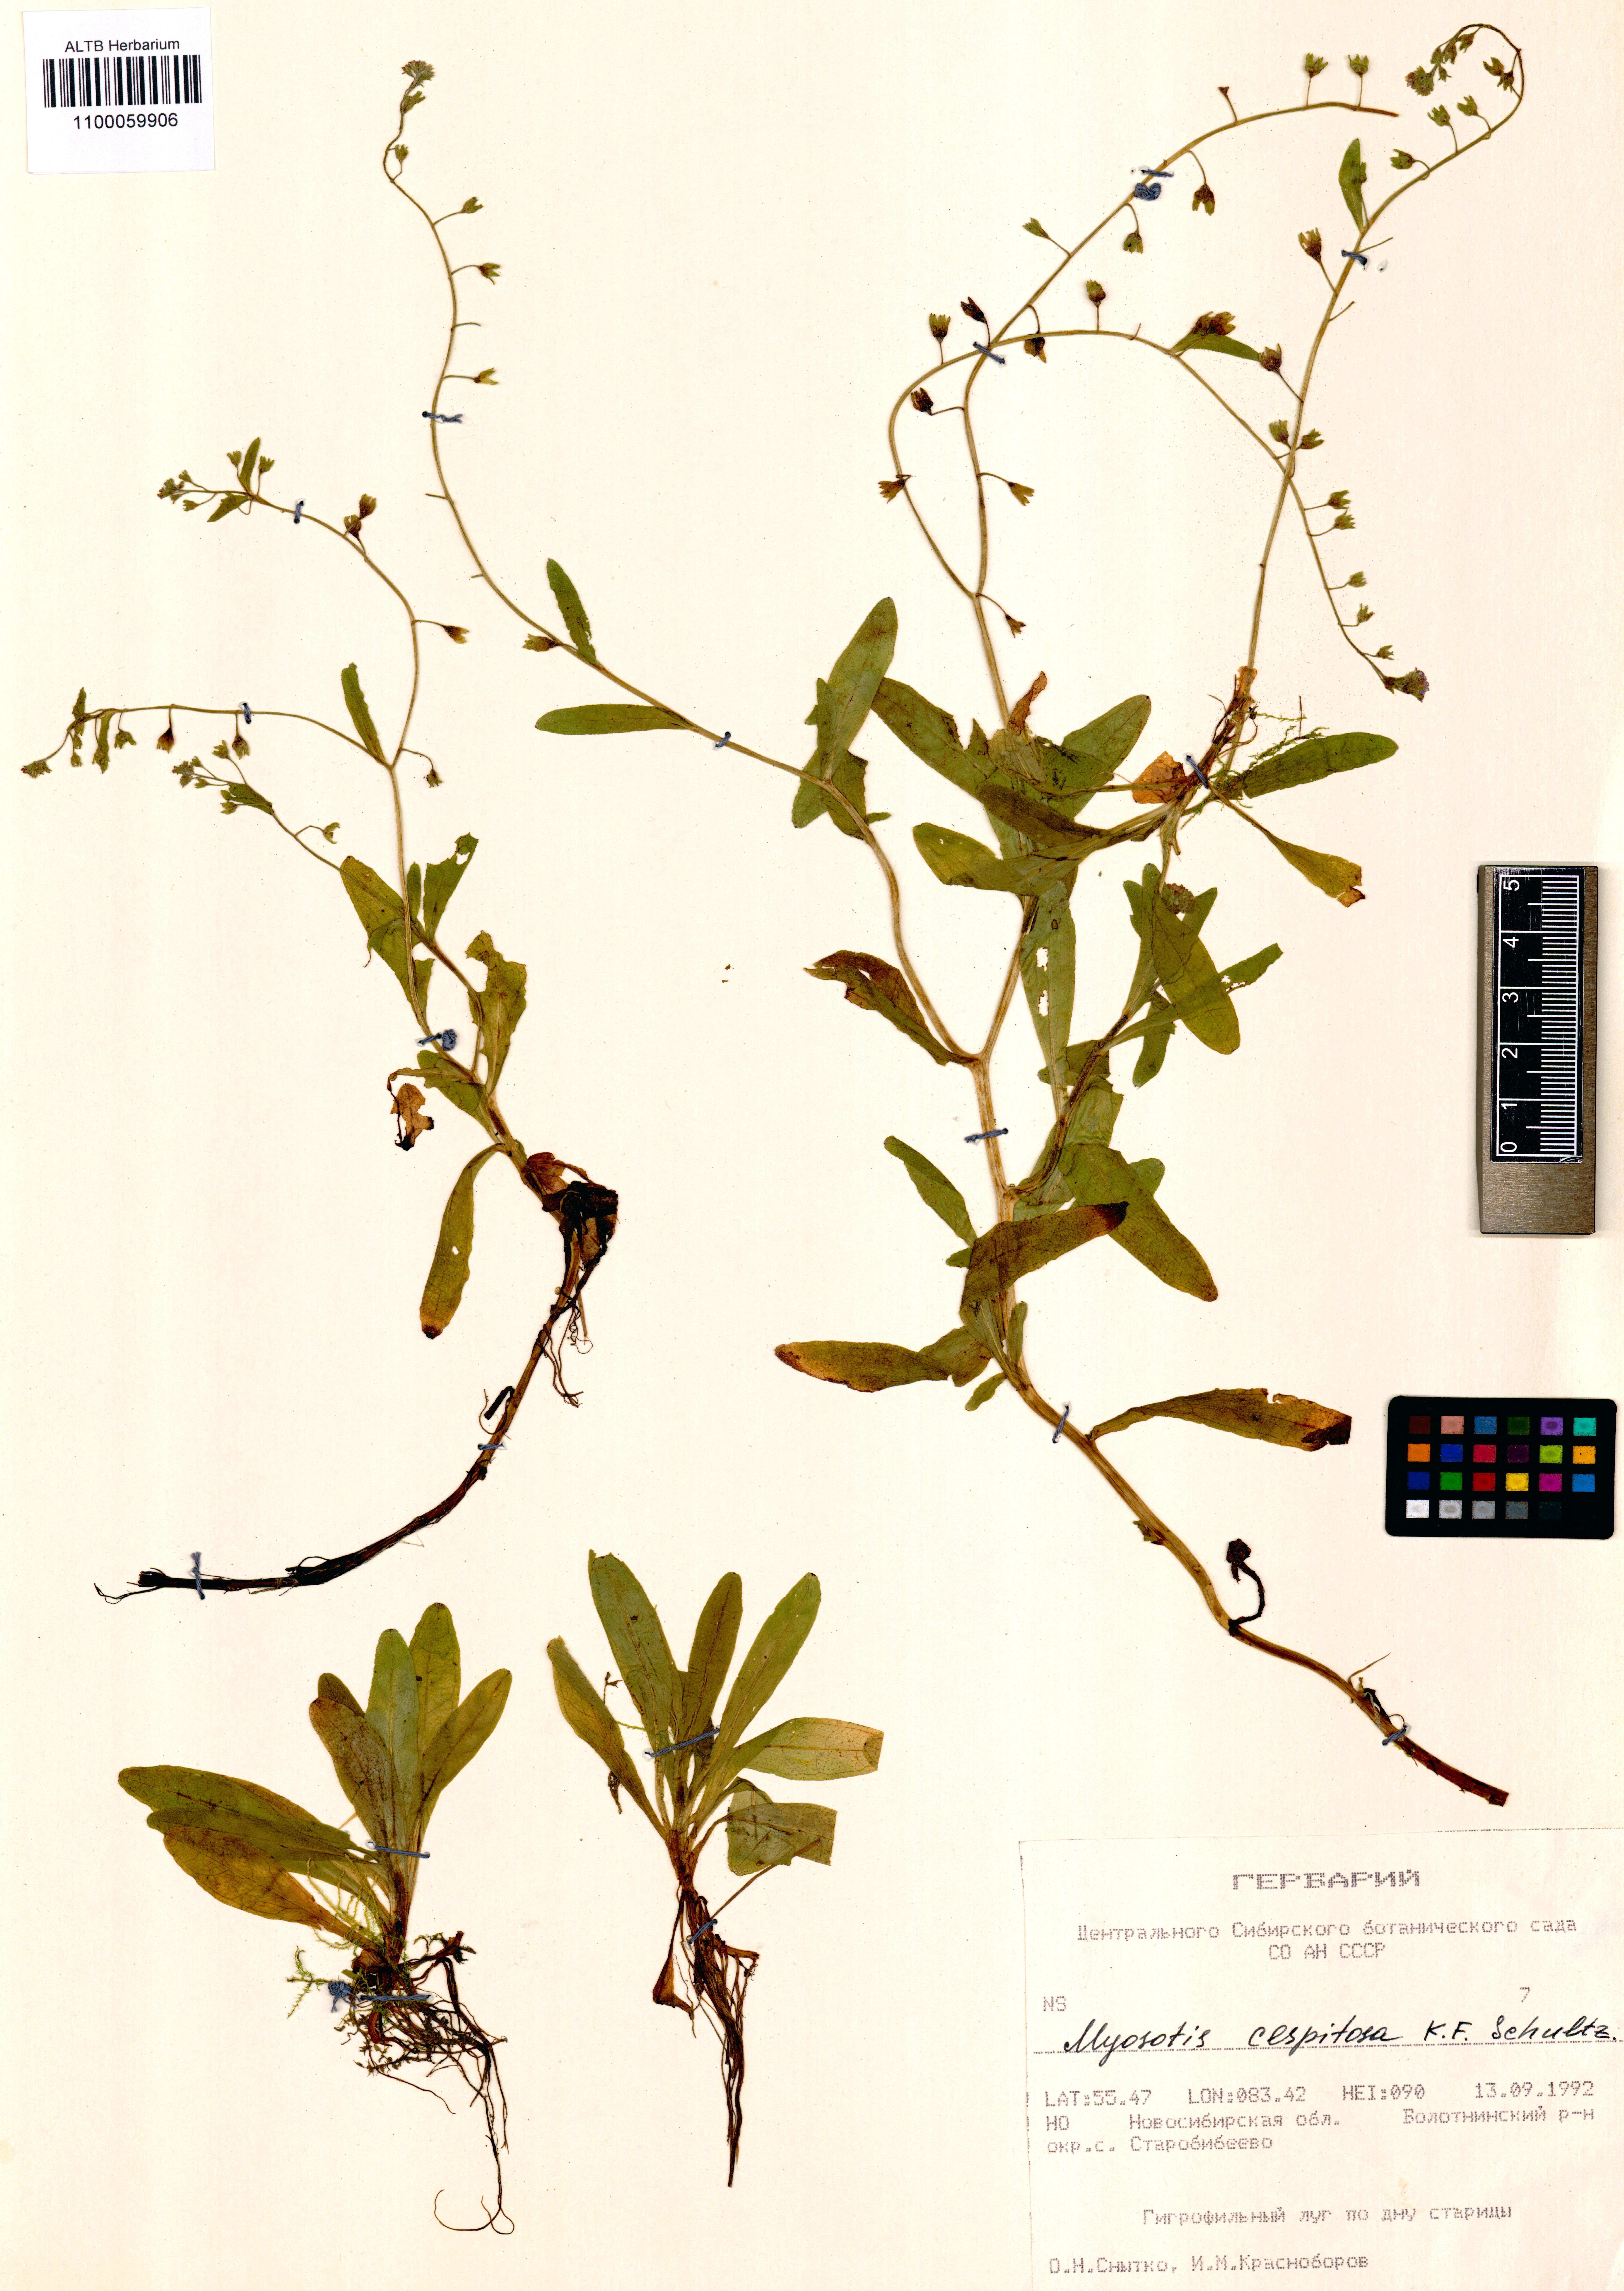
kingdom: Plantae
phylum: Tracheophyta
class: Magnoliopsida
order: Boraginales
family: Boraginaceae
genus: Myosotis
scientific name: Myosotis laxa
